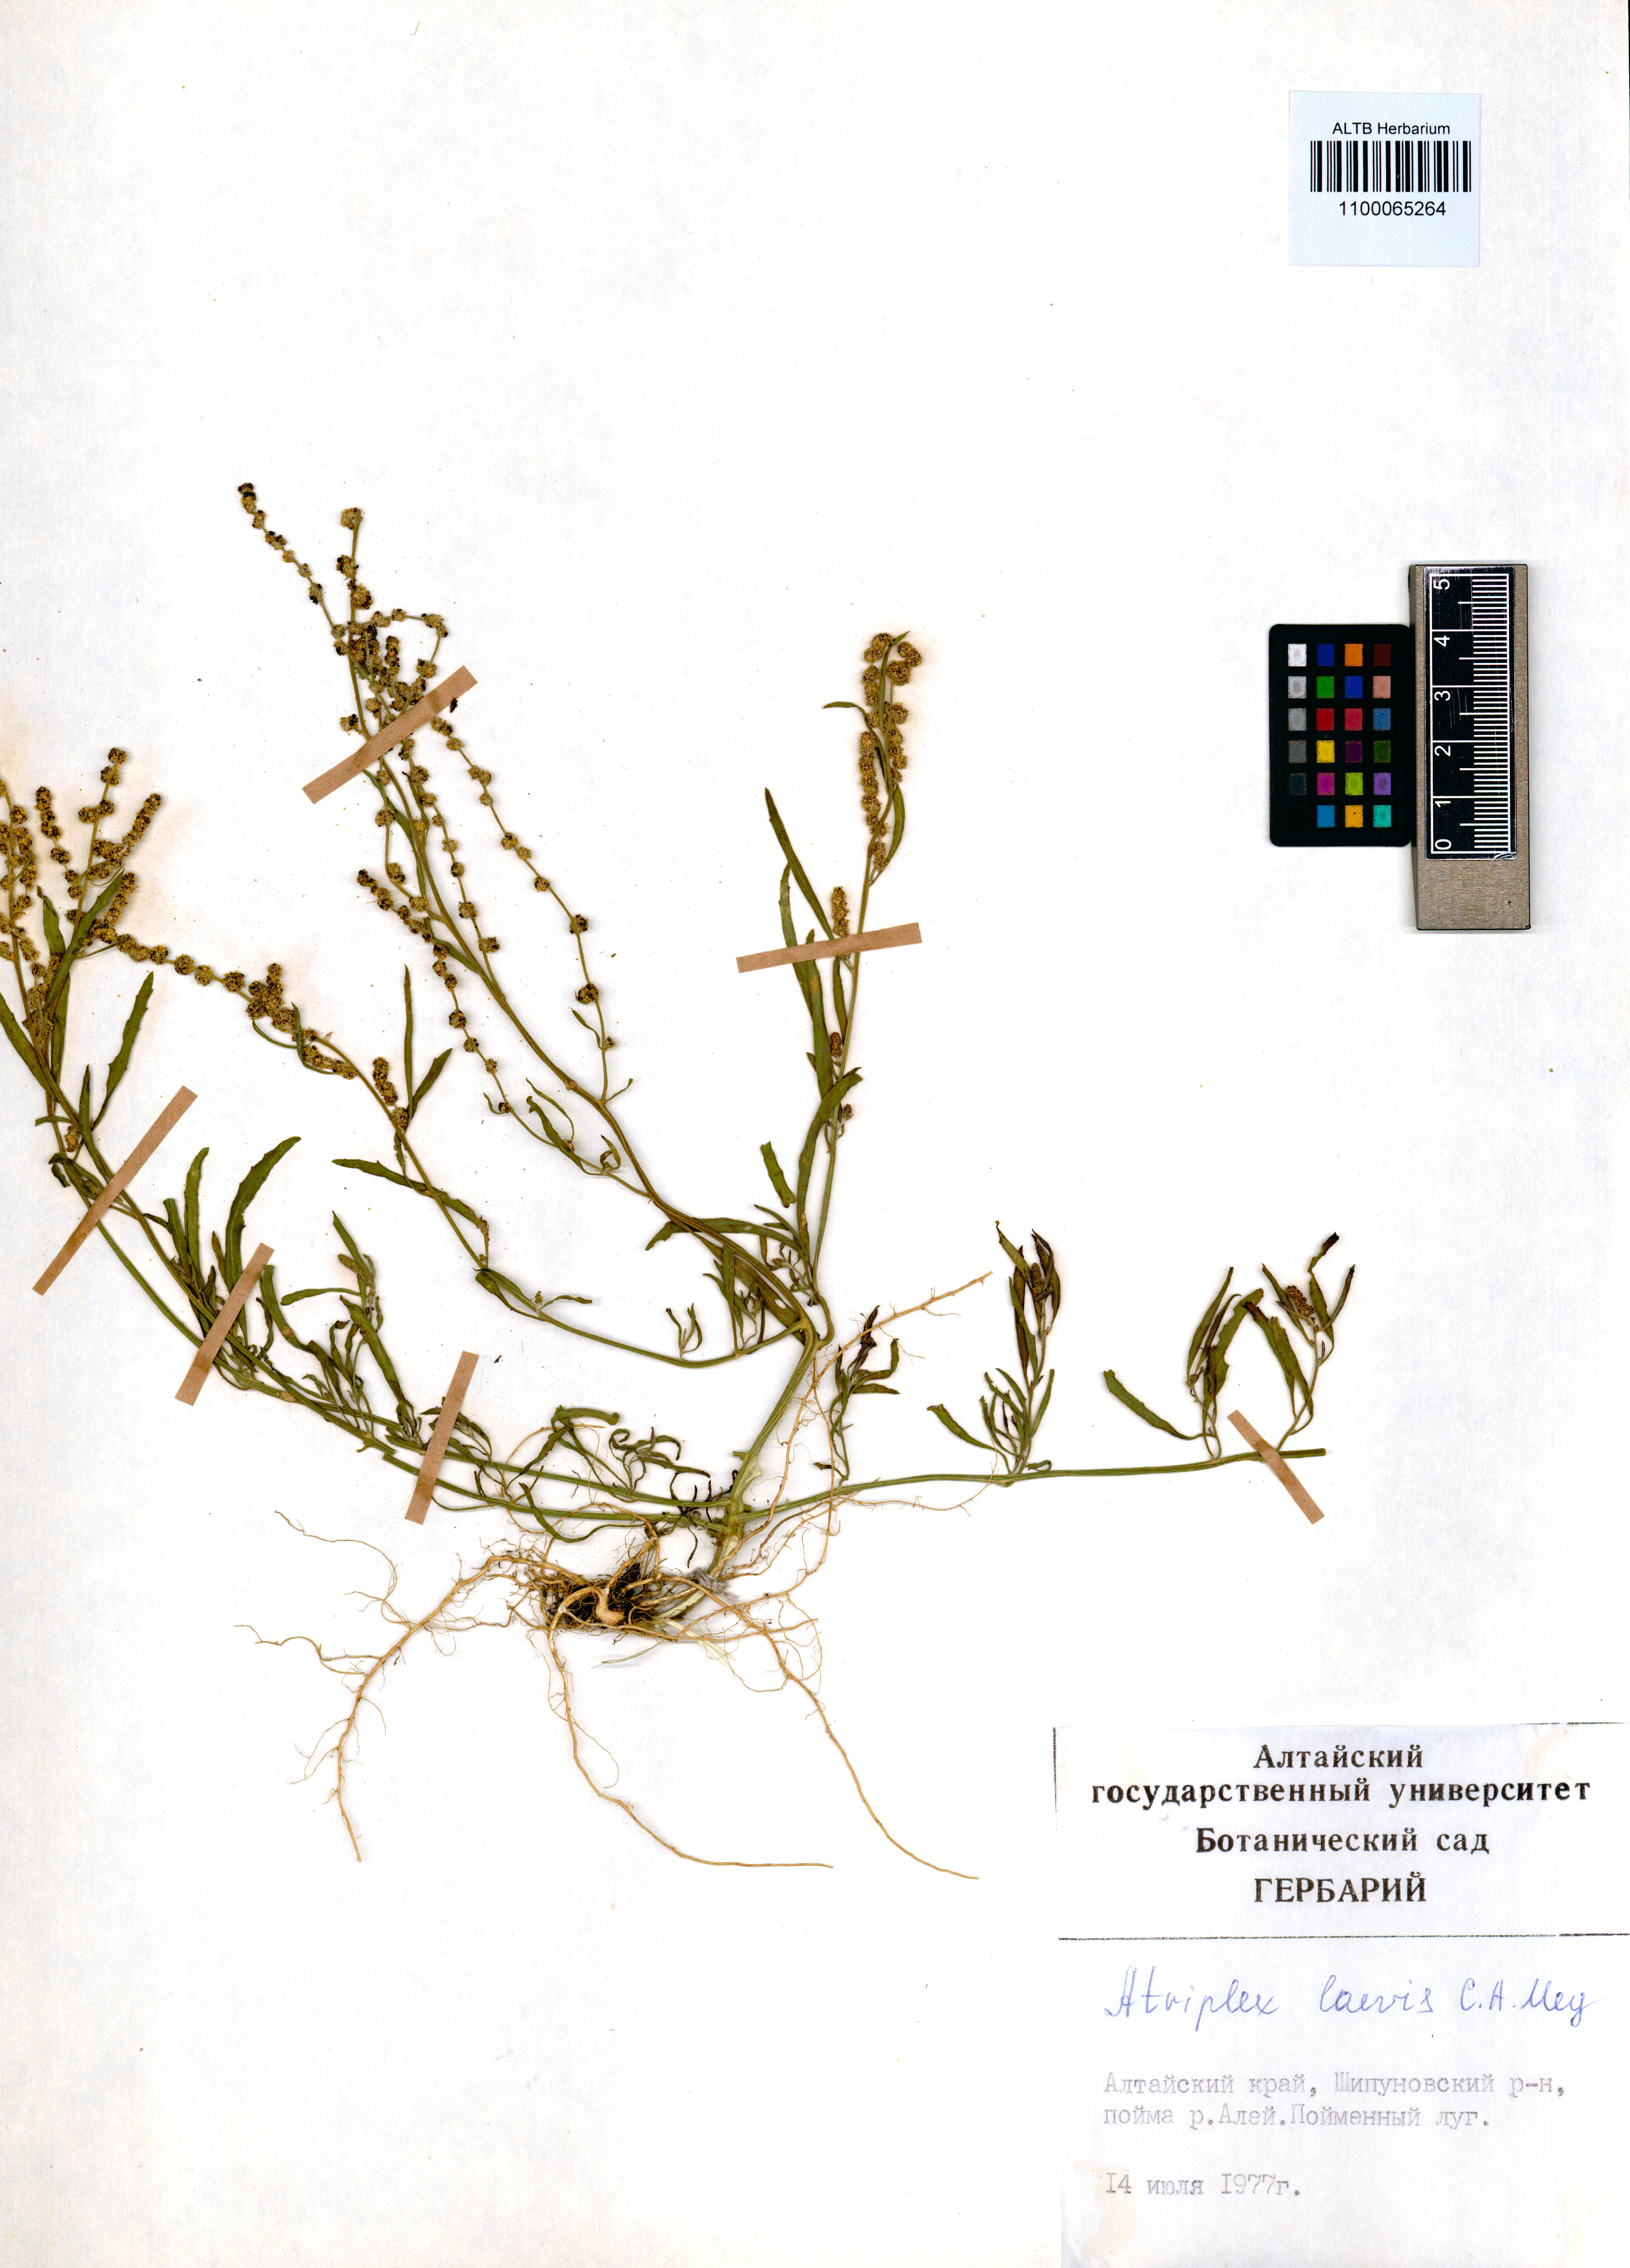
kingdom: Plantae
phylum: Tracheophyta
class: Magnoliopsida
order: Caryophyllales
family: Amaranthaceae
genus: Atriplex
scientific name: Atriplex laevis
